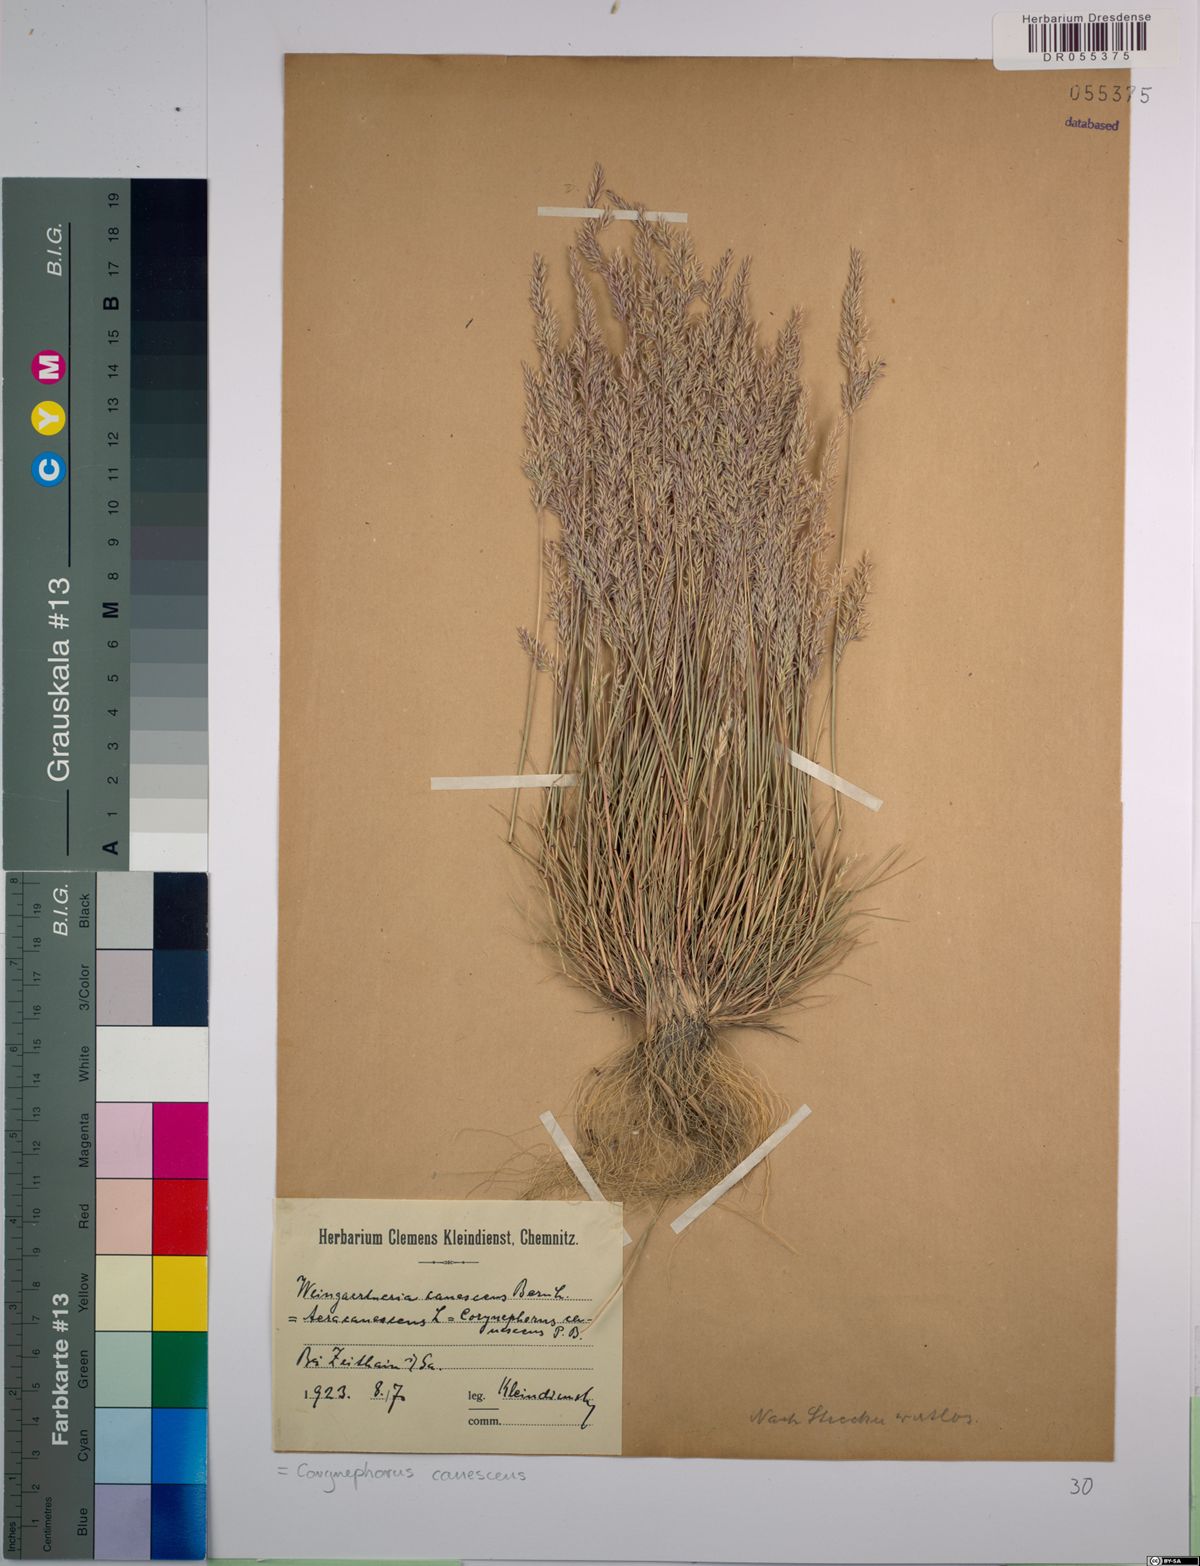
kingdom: Plantae
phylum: Tracheophyta
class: Liliopsida
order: Poales
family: Poaceae
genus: Corynephorus
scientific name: Corynephorus canescens
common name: Grey hair-grass
